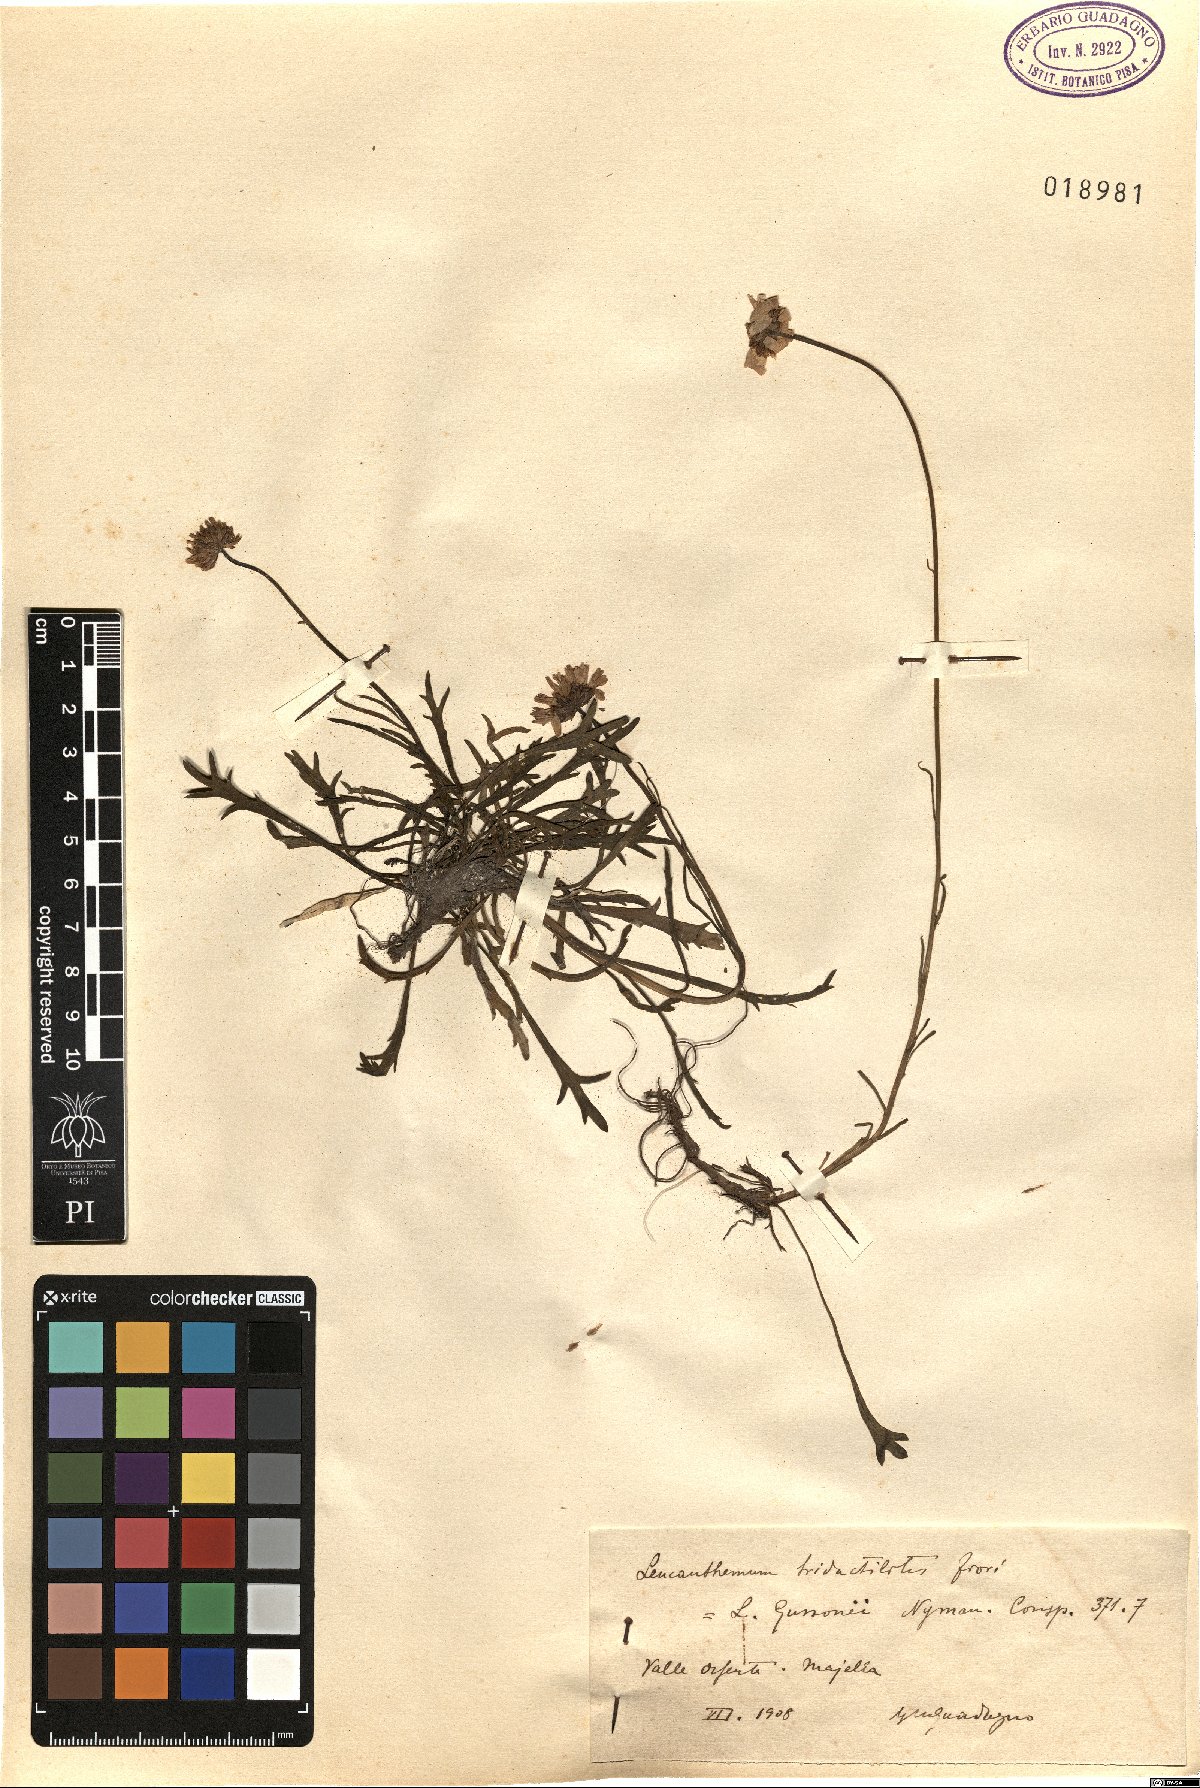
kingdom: Plantae
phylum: Tracheophyta
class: Magnoliopsida
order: Asterales
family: Asteraceae
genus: Leucanthemum
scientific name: Leucanthemum tridactylites
